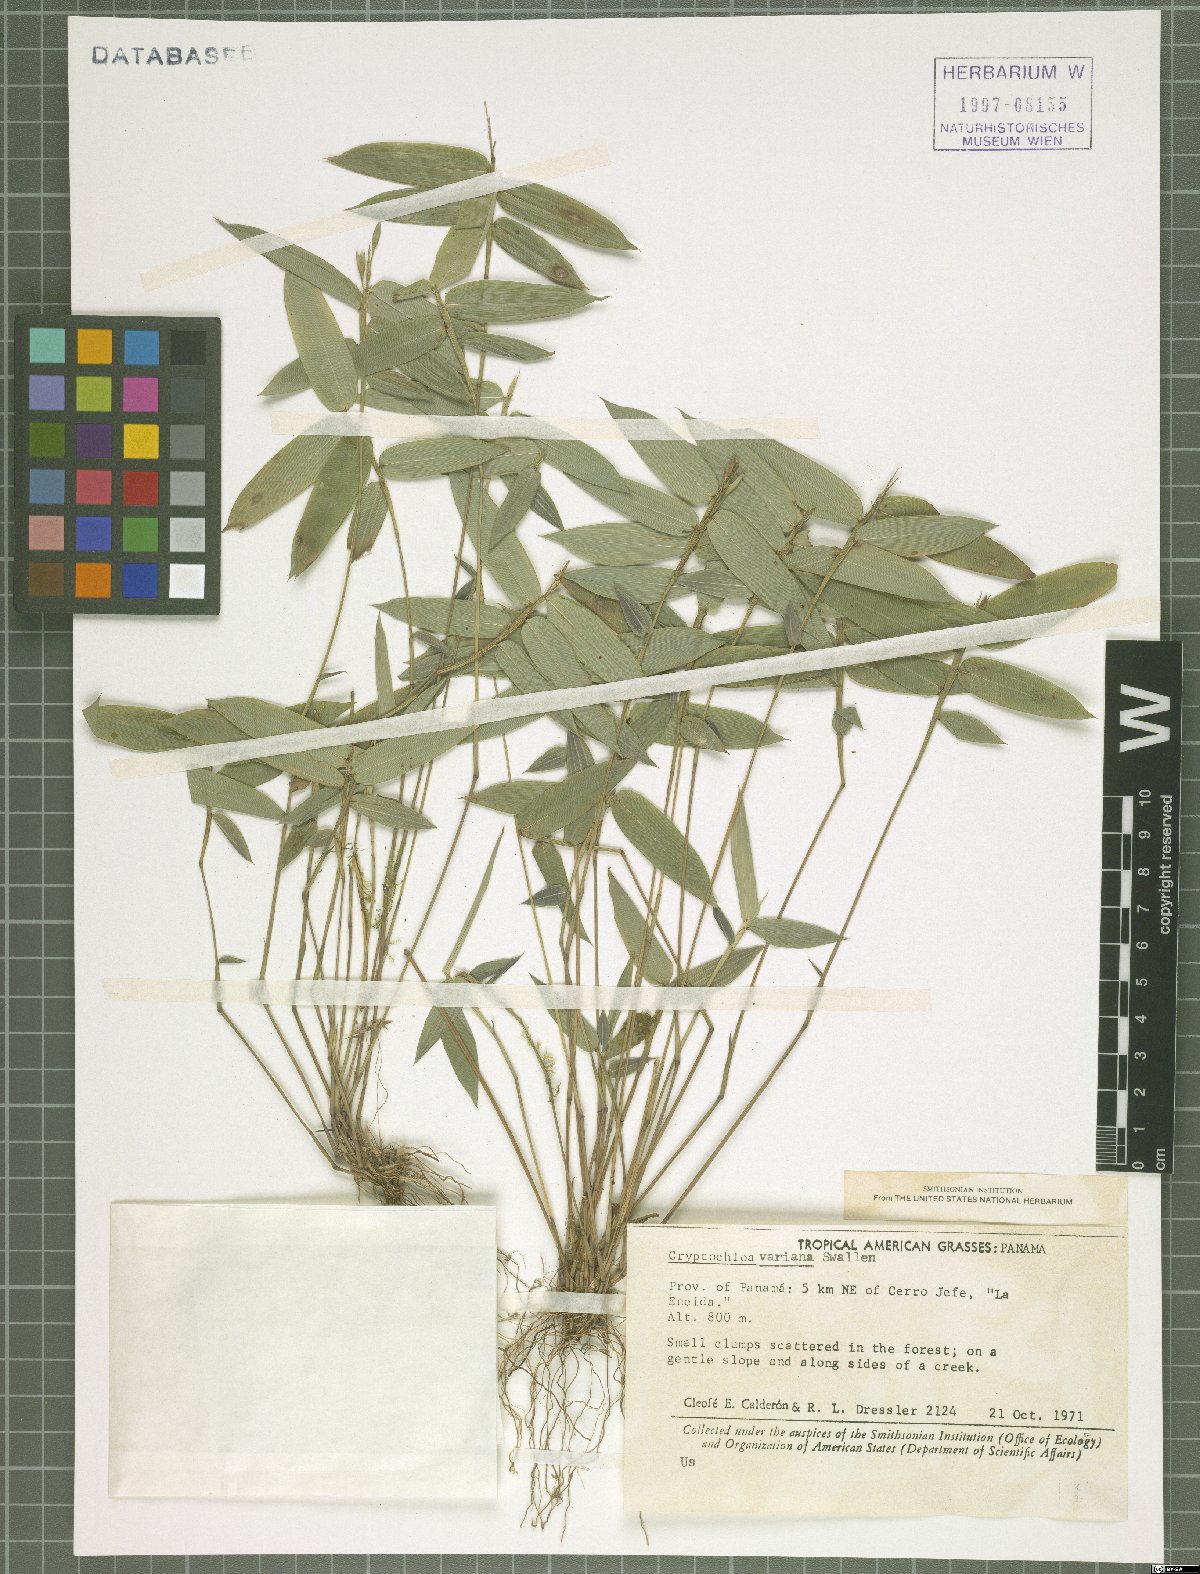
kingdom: Plantae
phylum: Tracheophyta
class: Liliopsida
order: Poales
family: Poaceae
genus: Cryptochloa
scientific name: Cryptochloa variana
